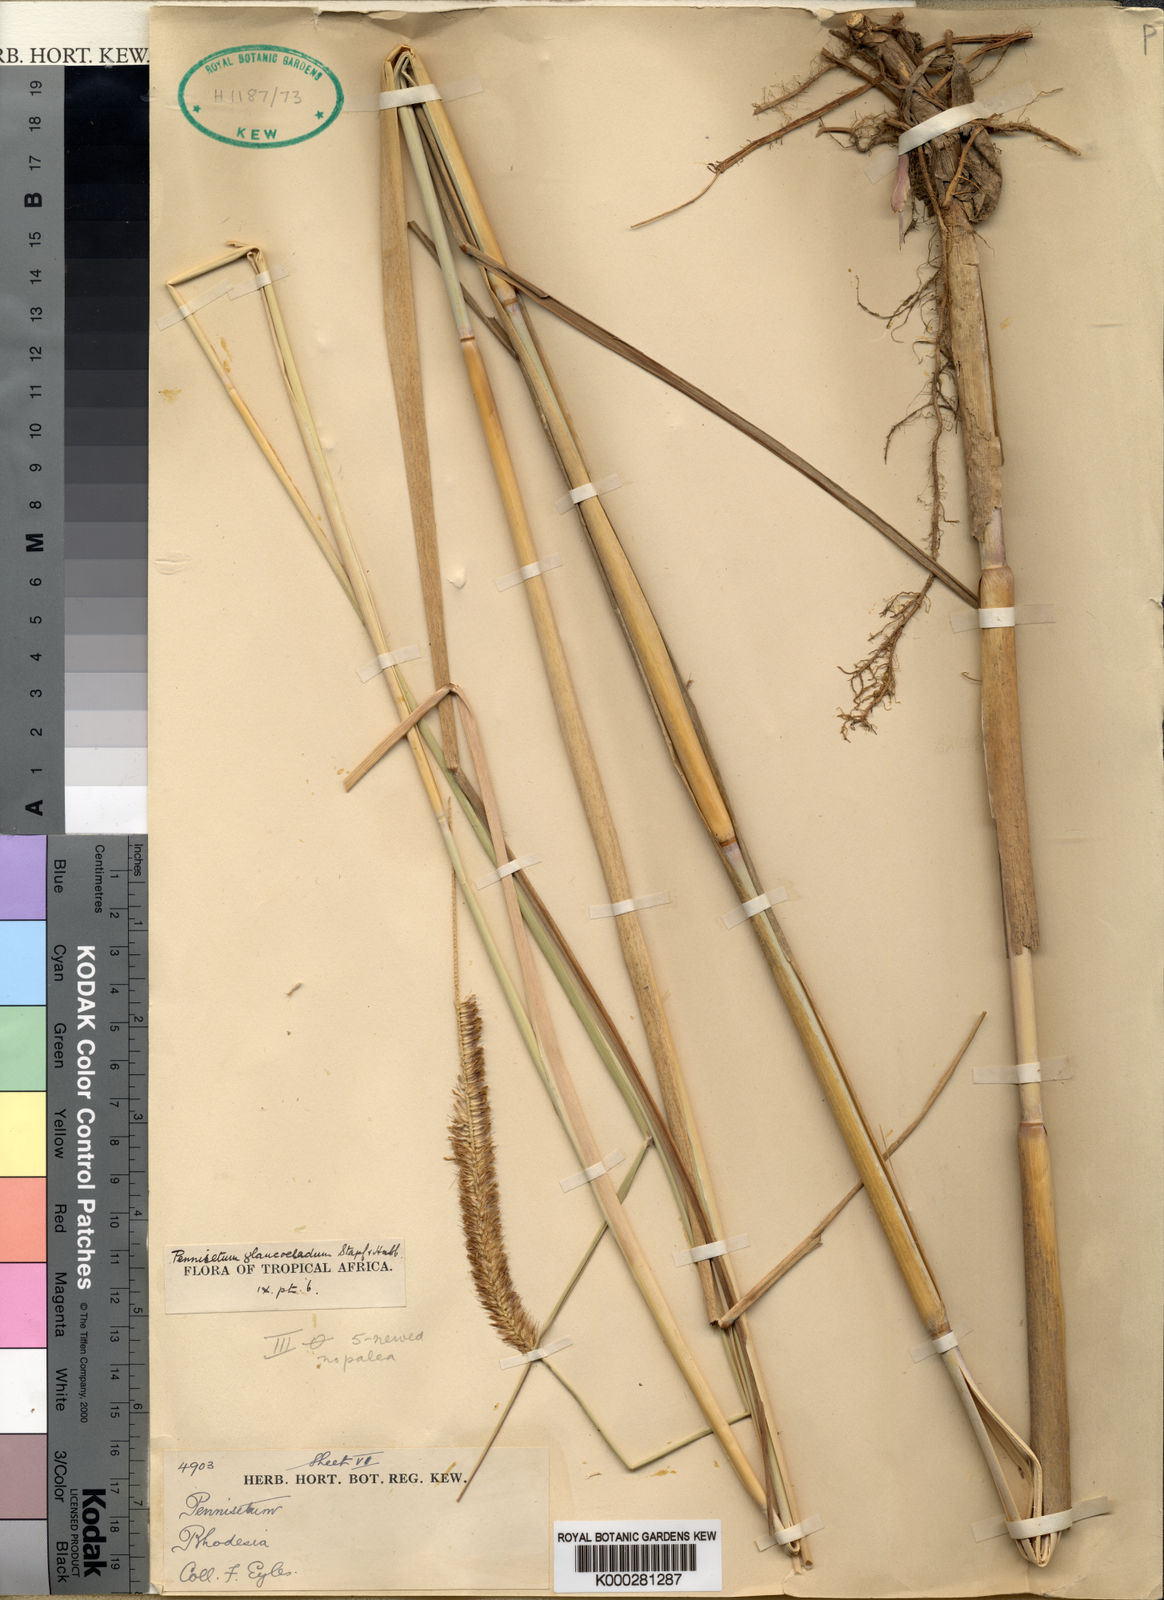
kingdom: Plantae
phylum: Tracheophyta
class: Liliopsida
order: Poales
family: Poaceae
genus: Cenchrus
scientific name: Cenchrus caudatus
